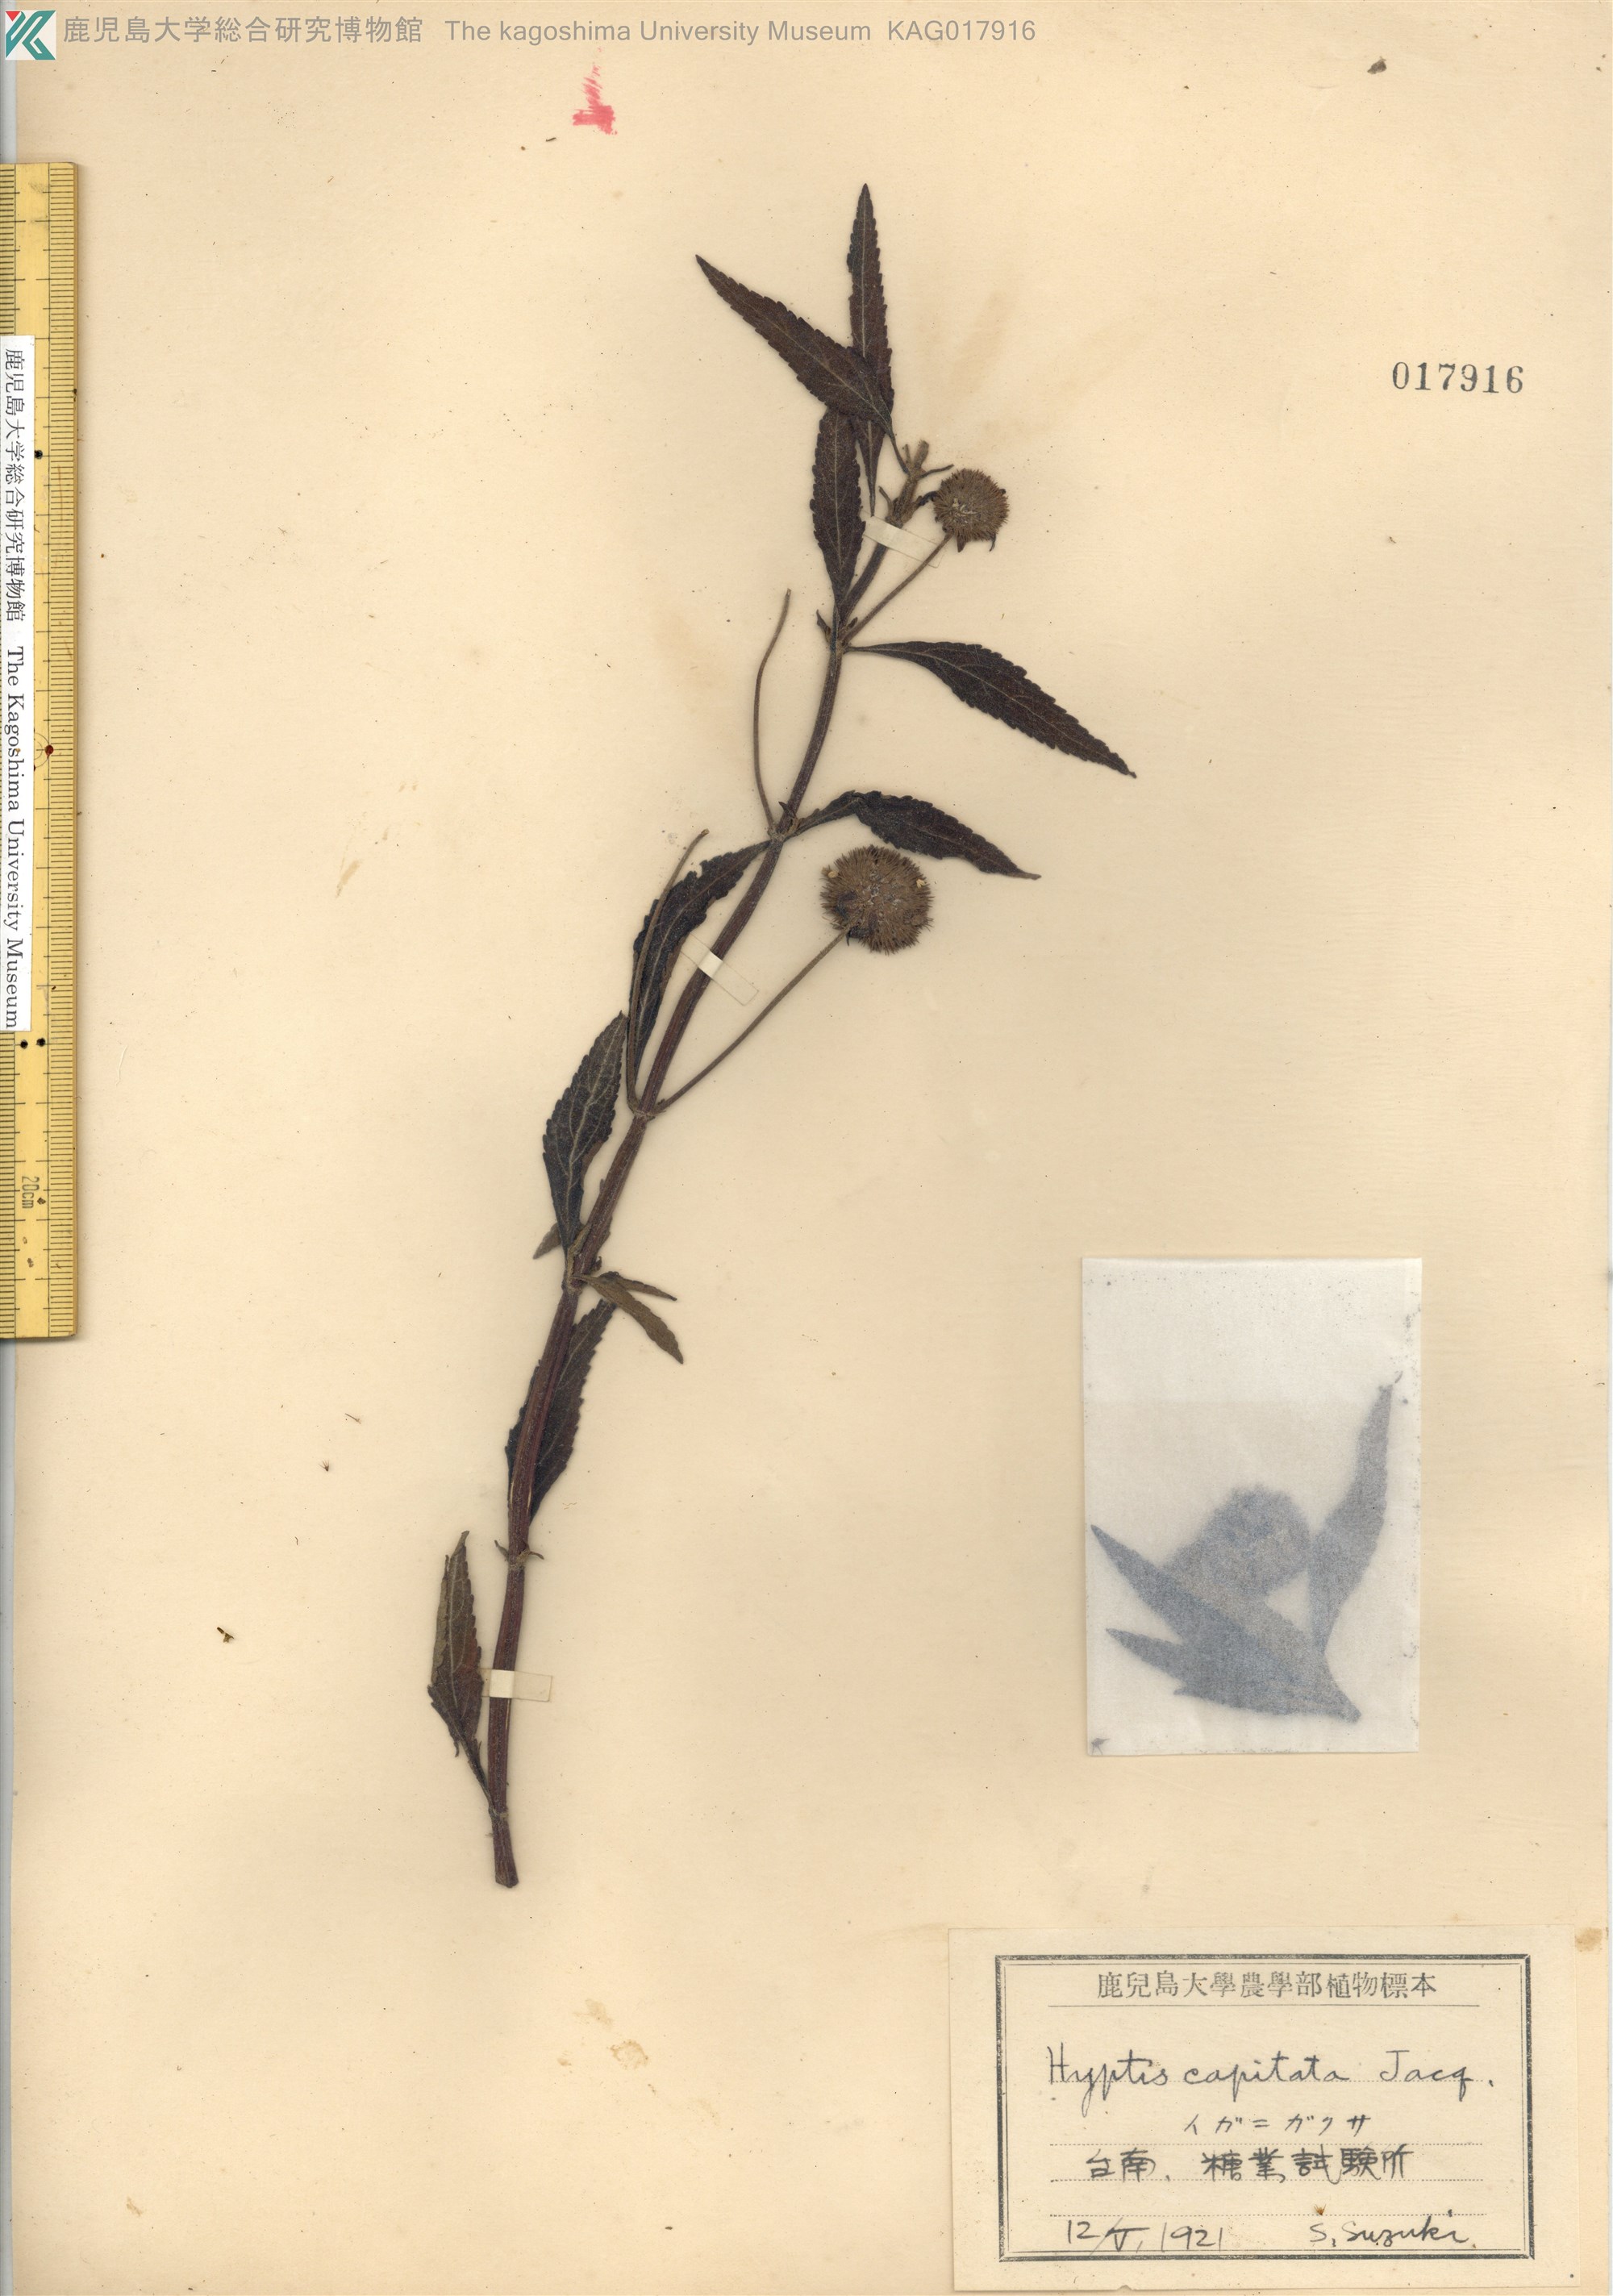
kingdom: Plantae
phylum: Tracheophyta
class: Magnoliopsida
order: Lamiales
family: Lamiaceae
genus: Hyptis
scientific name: Hyptis capitata
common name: False ironwort
